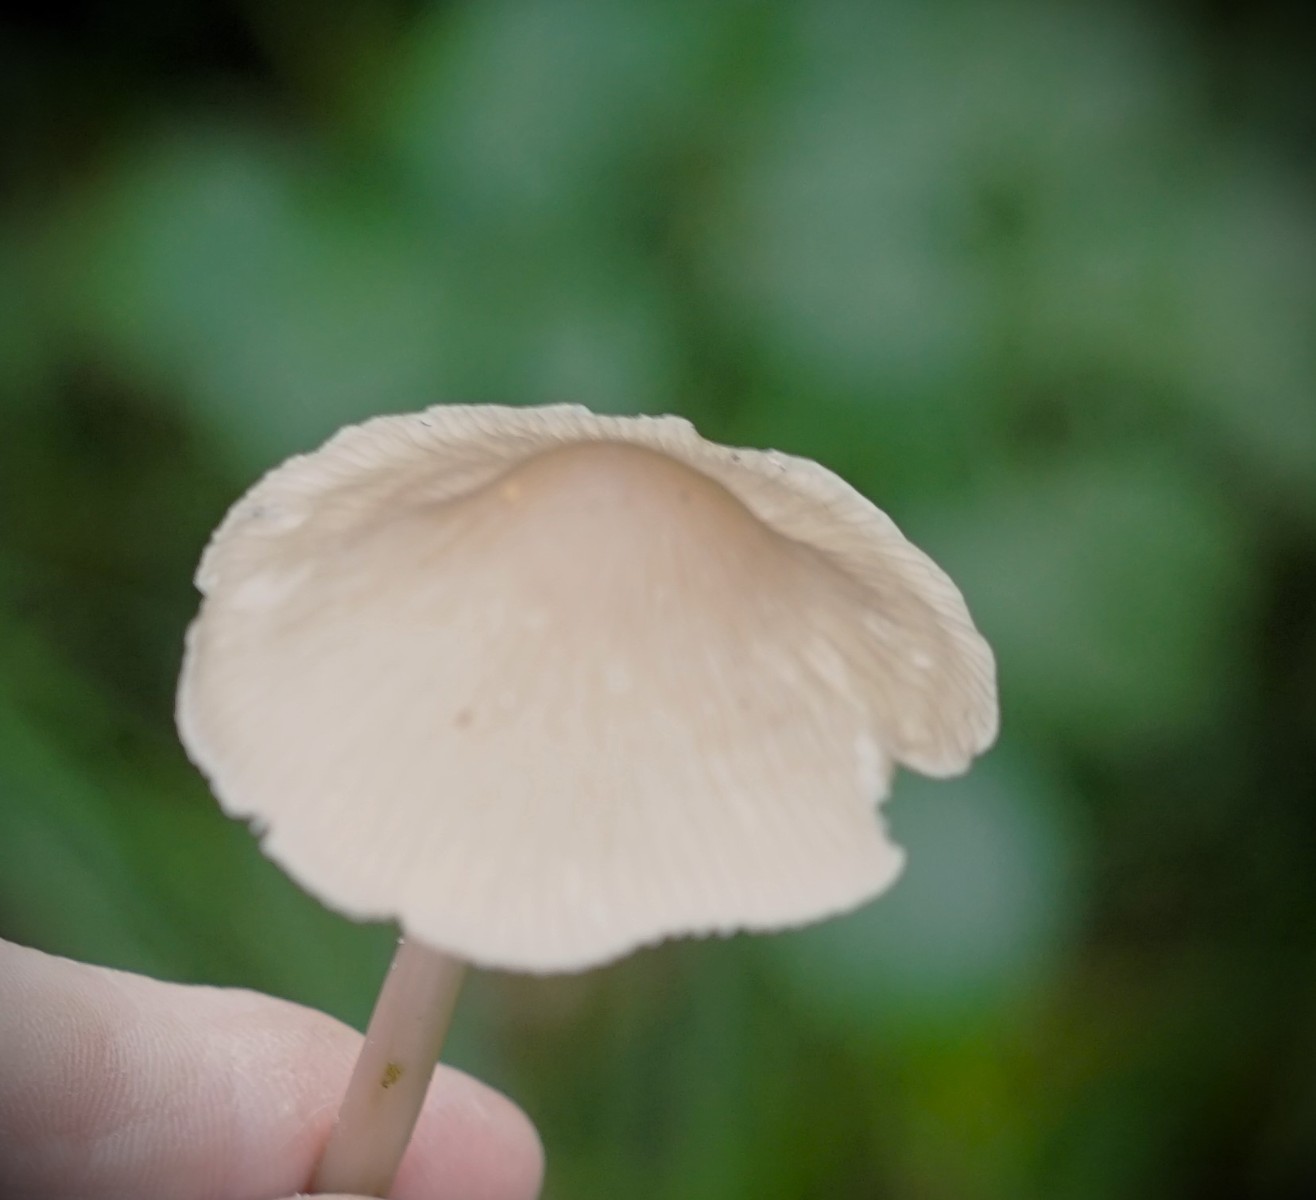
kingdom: Fungi
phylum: Basidiomycota
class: Agaricomycetes
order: Agaricales
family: Mycenaceae
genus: Mycena
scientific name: Mycena
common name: huesvamp
